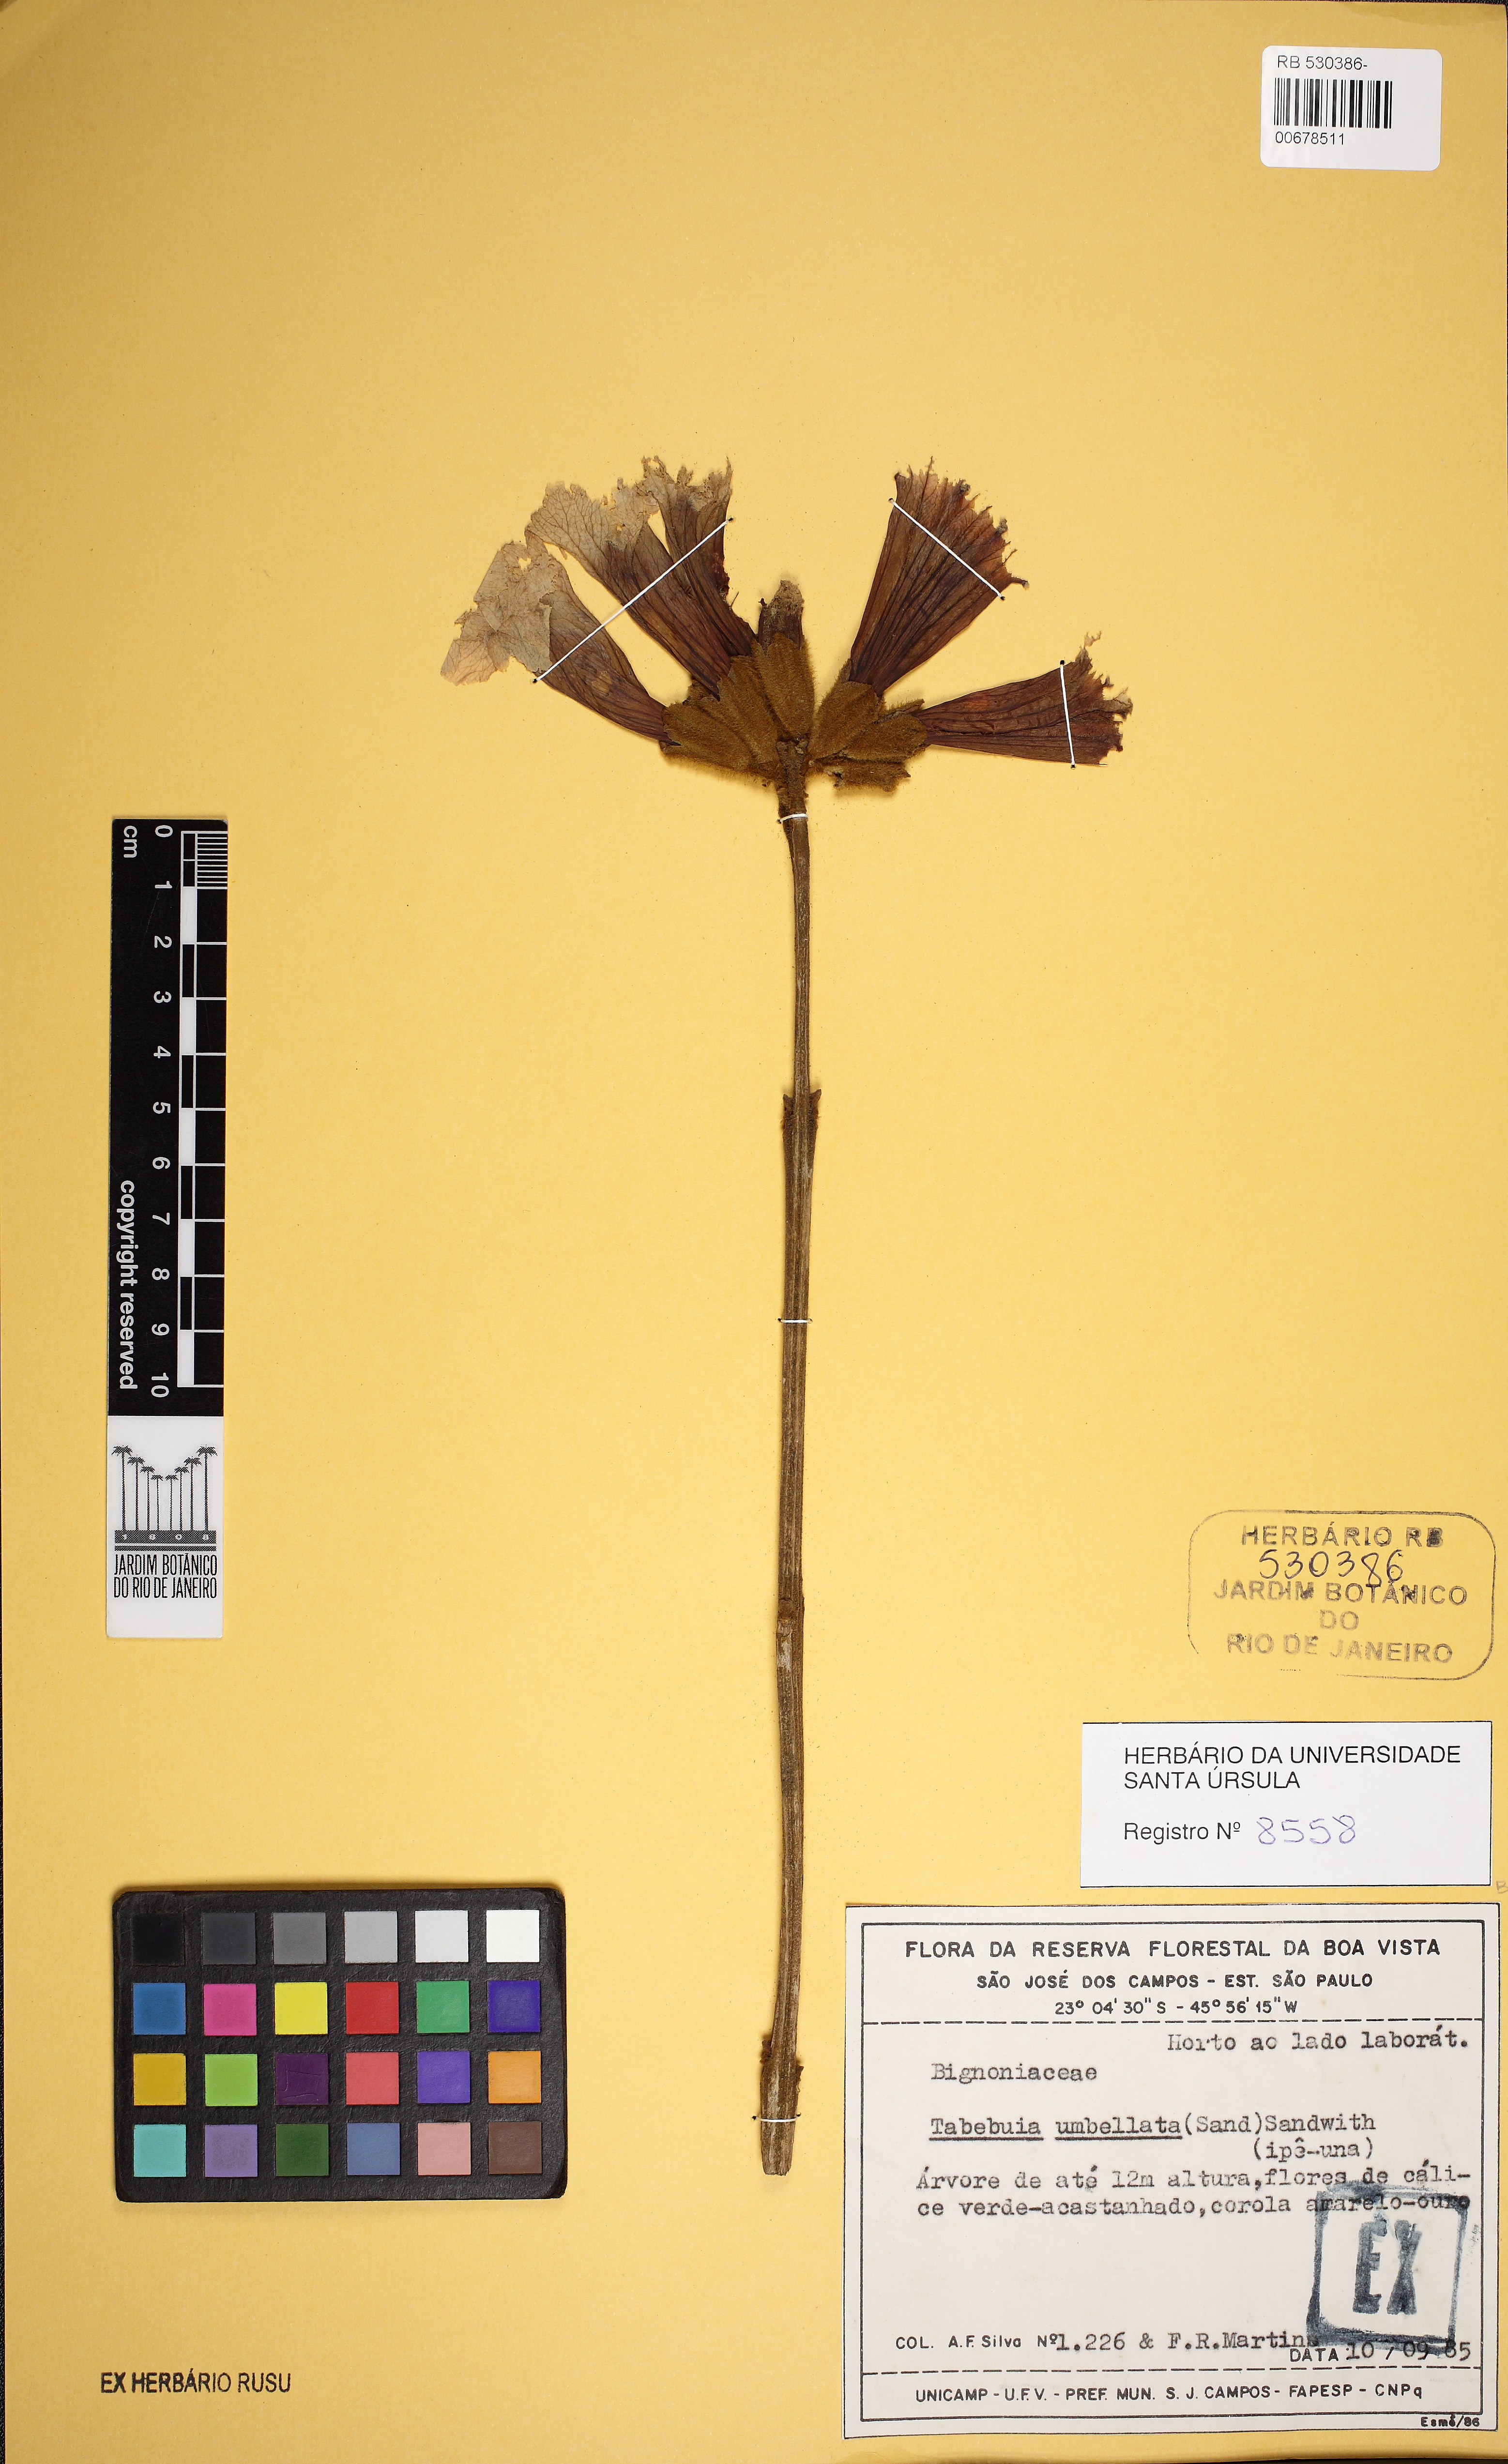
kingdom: Plantae
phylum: Tracheophyta
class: Magnoliopsida
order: Lamiales
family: Bignoniaceae
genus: Handroanthus
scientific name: Handroanthus chrysotrichus
